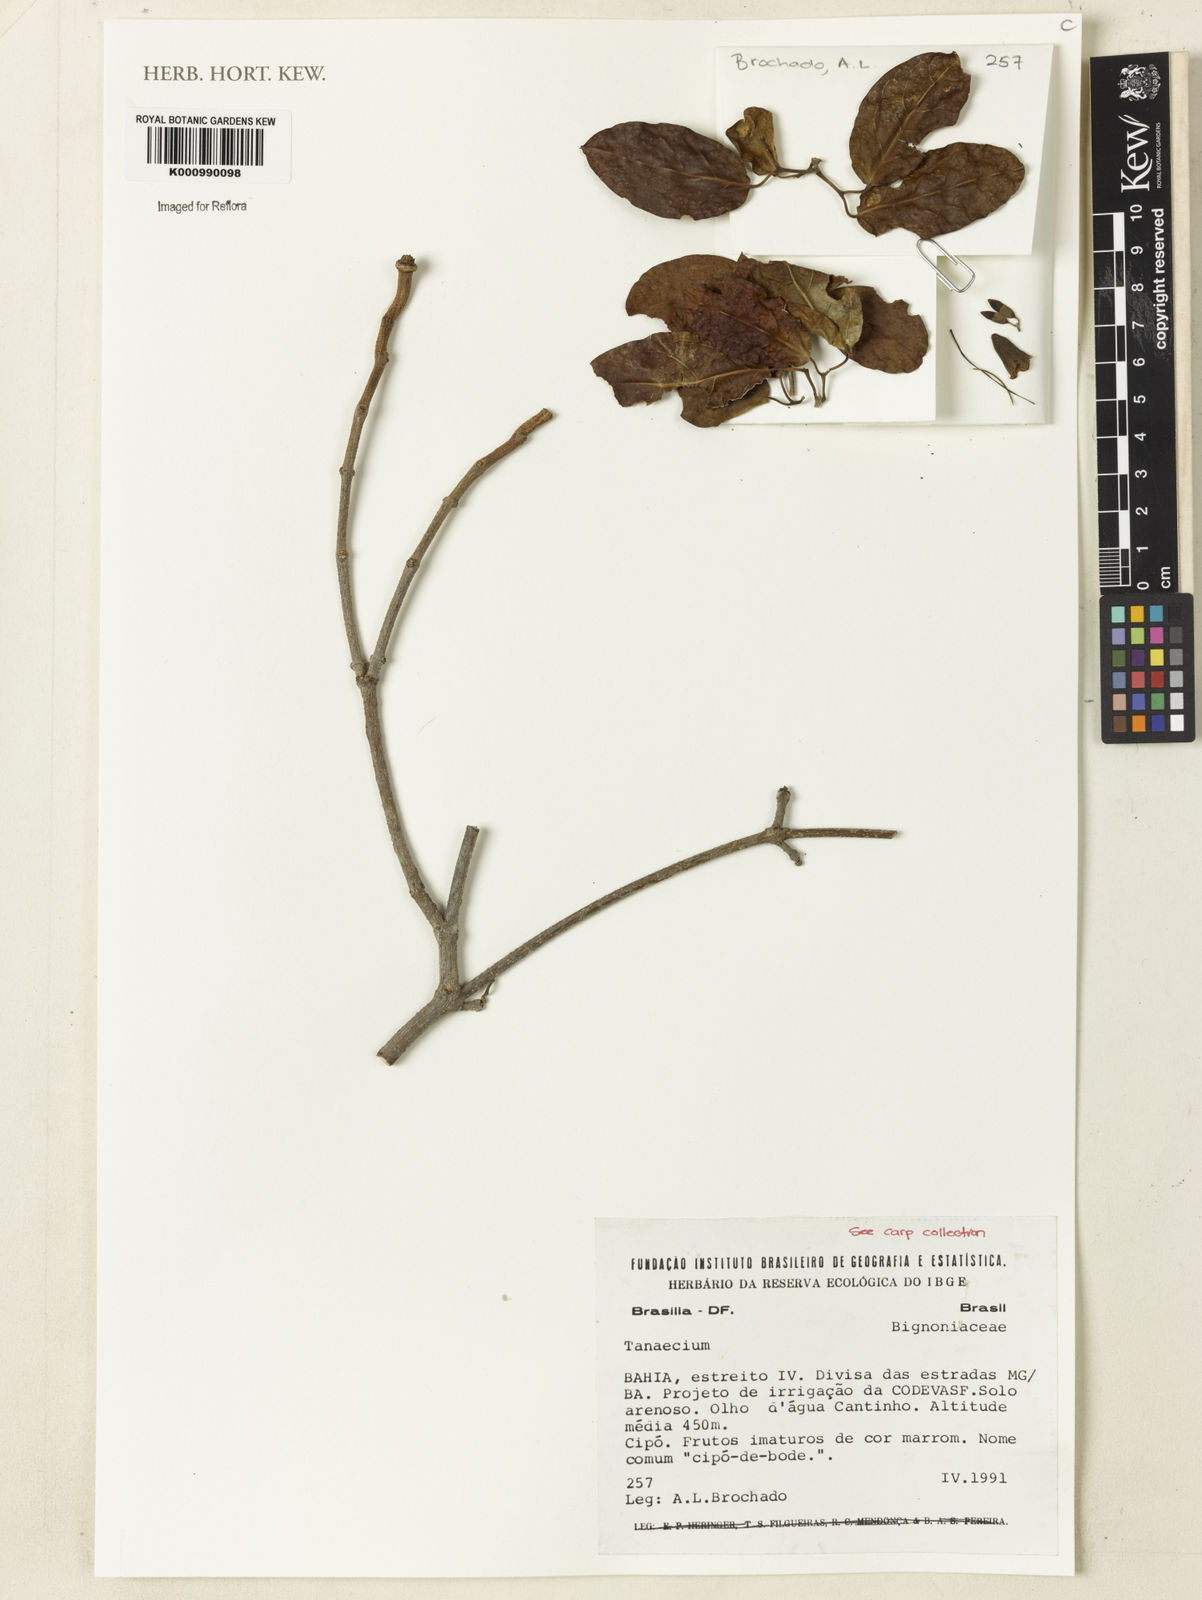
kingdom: Plantae
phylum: Tracheophyta
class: Magnoliopsida
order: Lamiales
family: Bignoniaceae
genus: Tanaecium
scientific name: Tanaecium
